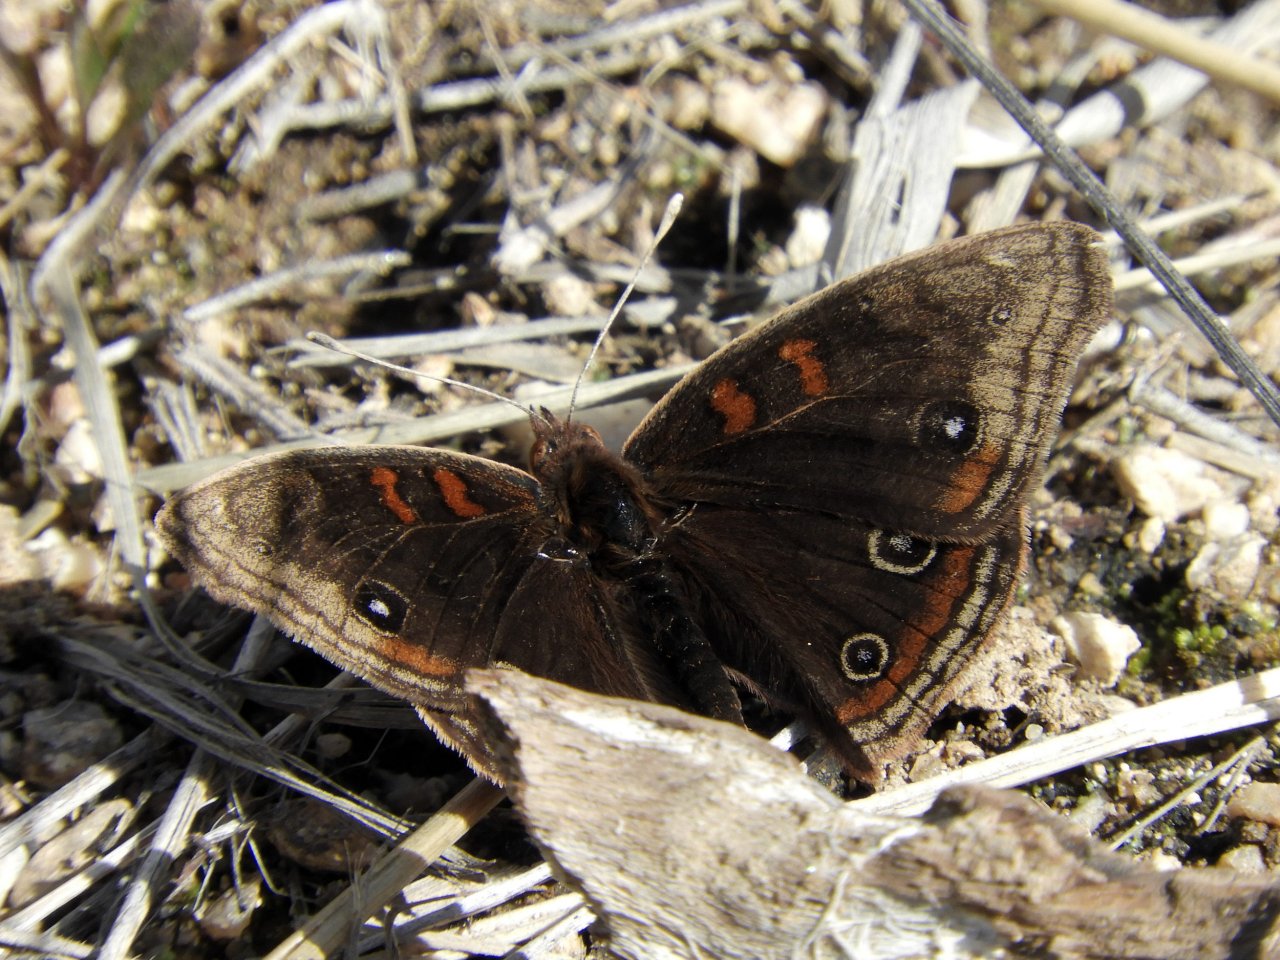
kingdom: Animalia
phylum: Arthropoda
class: Insecta
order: Lepidoptera
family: Nymphalidae
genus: Junonia
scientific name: Junonia lavinia
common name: Tropical Buckeye
